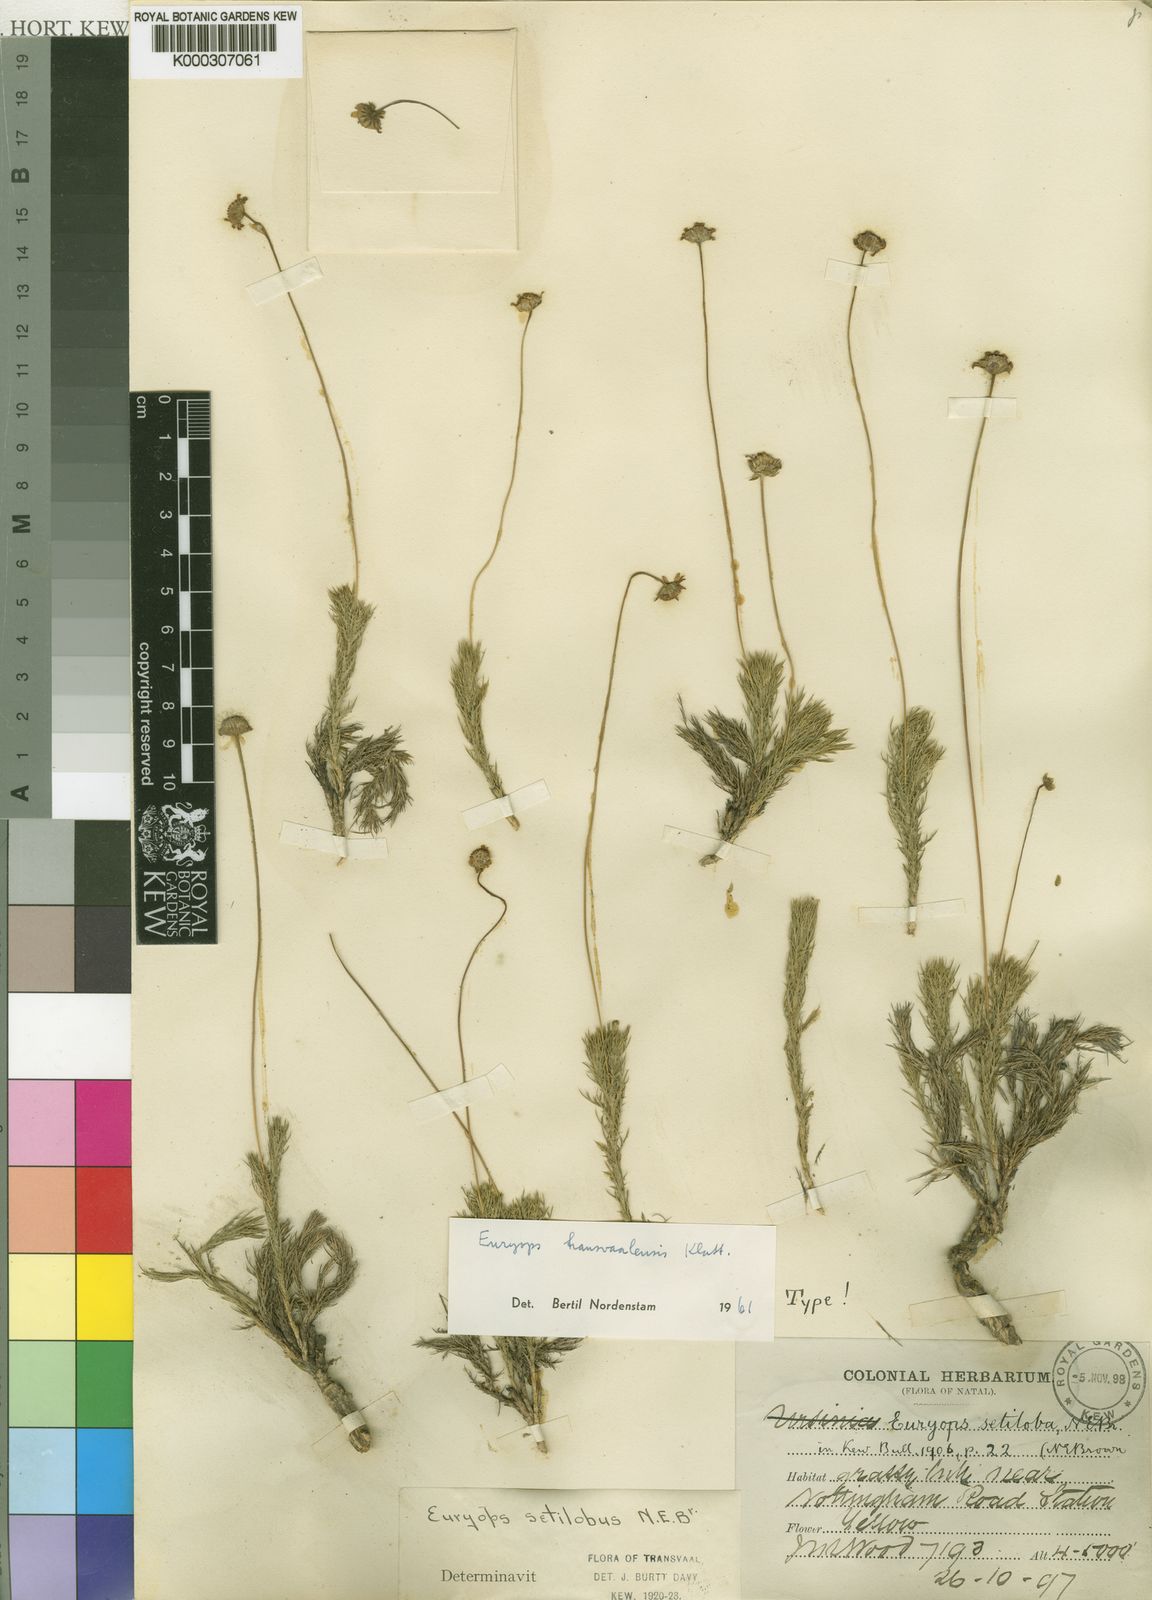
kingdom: Plantae
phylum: Tracheophyta
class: Magnoliopsida
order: Asterales
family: Asteraceae
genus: Euryops
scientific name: Euryops transvaalensis
